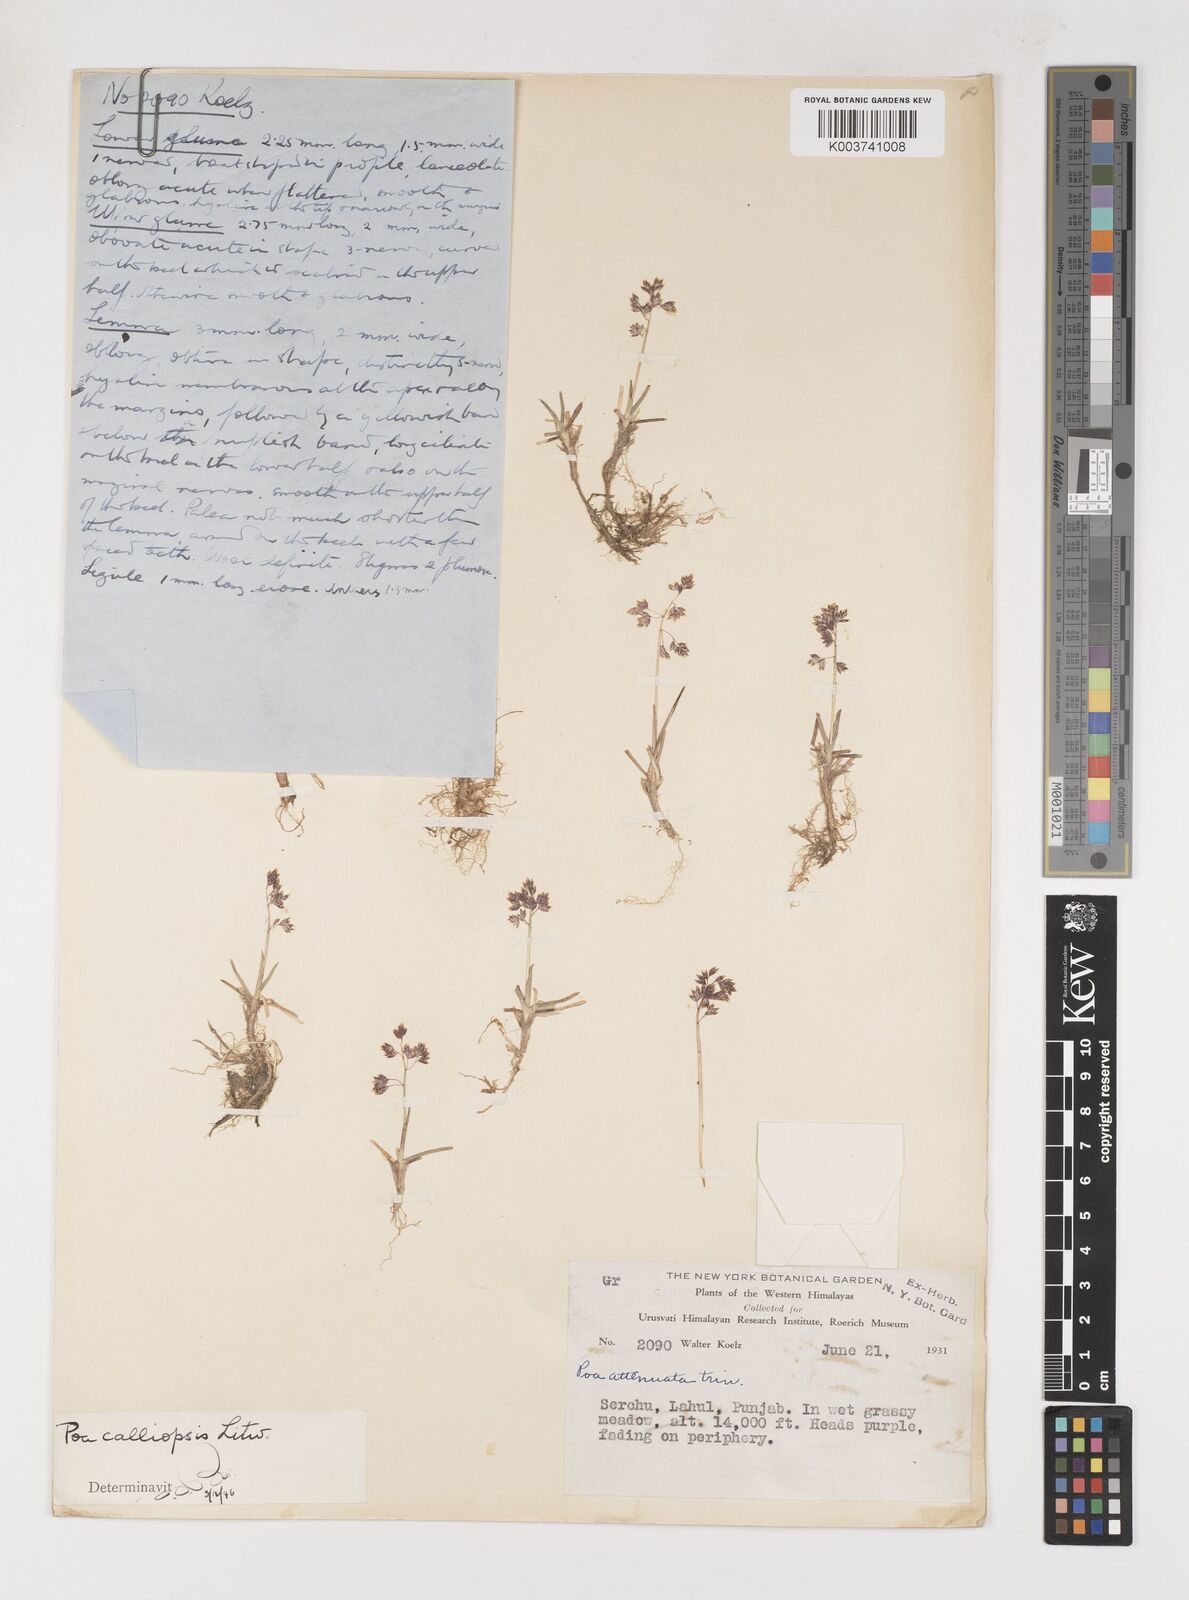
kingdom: Plantae
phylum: Tracheophyta
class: Liliopsida
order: Poales
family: Poaceae
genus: Poa
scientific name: Poa calliopsis
